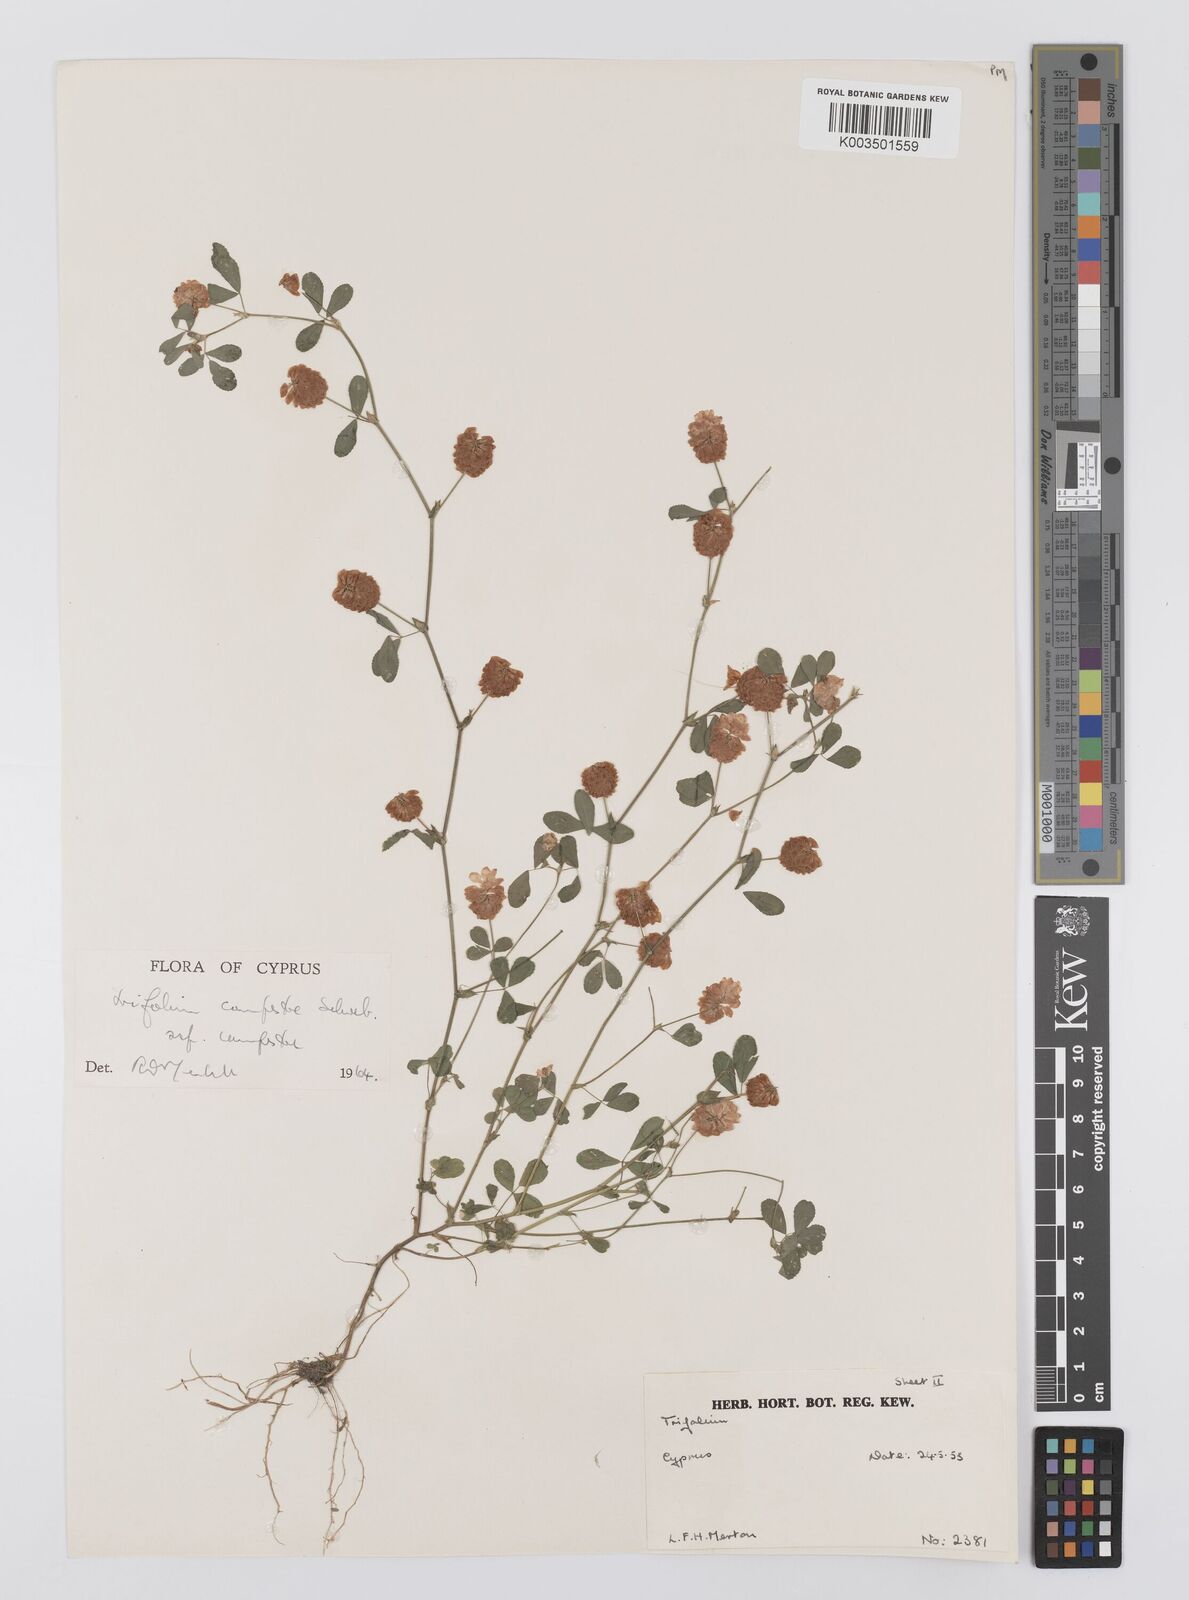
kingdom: Plantae
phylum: Tracheophyta
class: Magnoliopsida
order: Fabales
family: Fabaceae
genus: Trifolium
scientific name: Trifolium campestre
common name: Field clover
